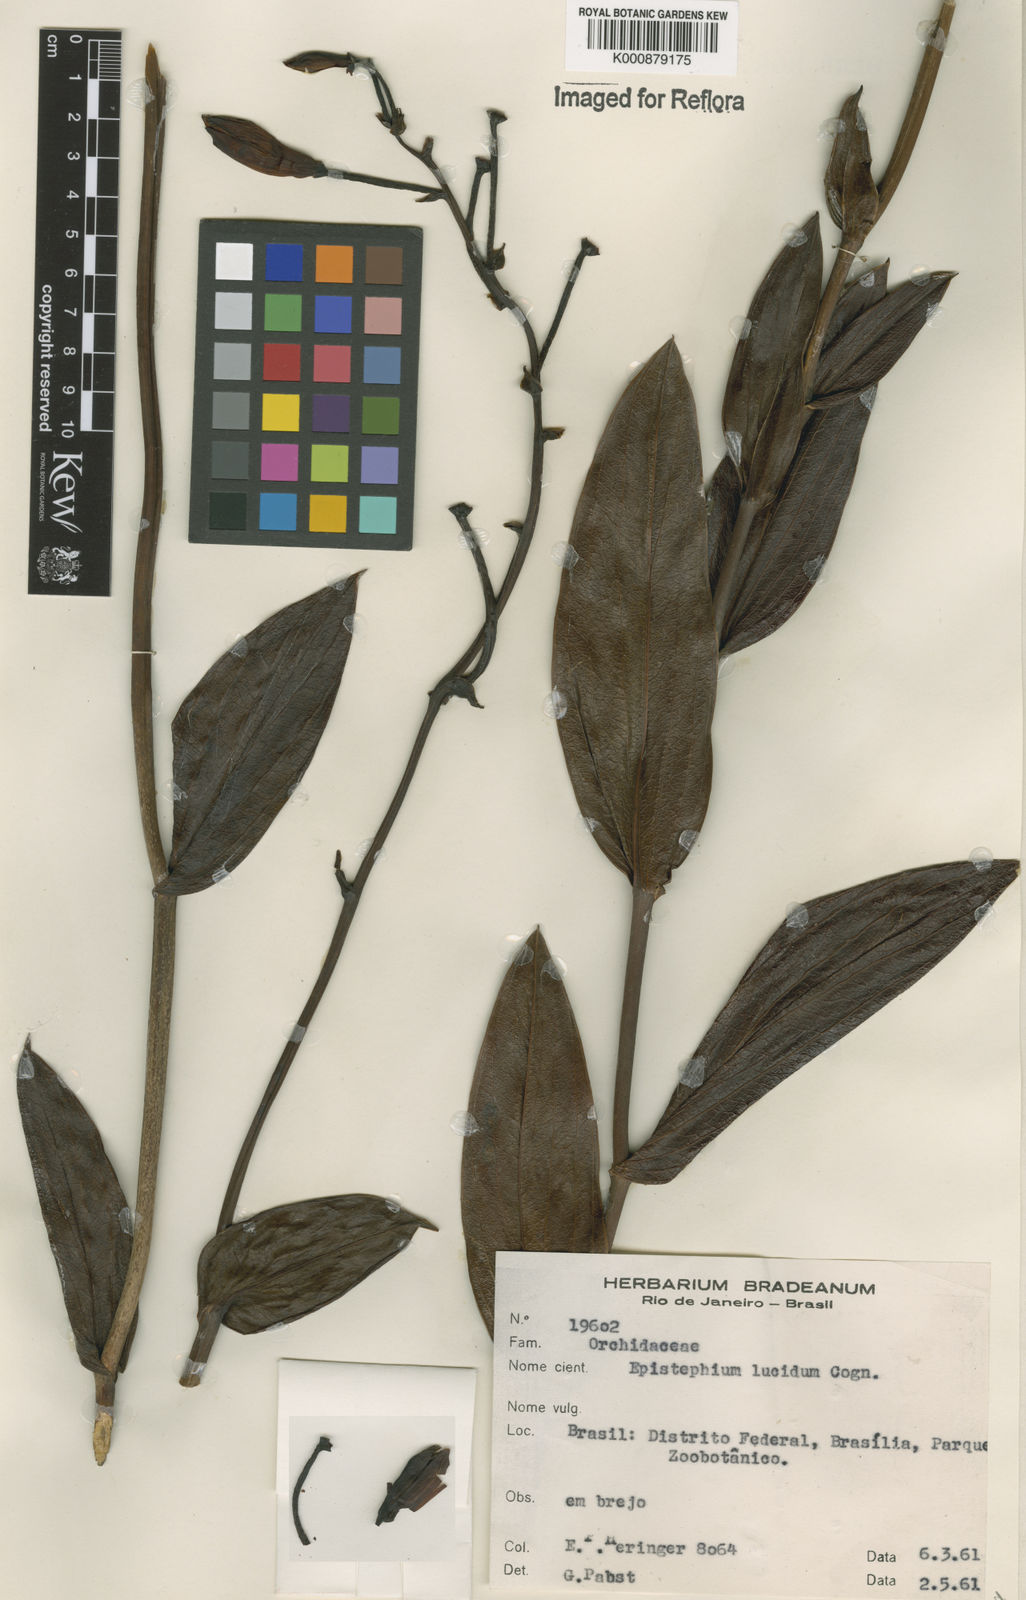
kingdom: Plantae
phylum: Tracheophyta
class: Liliopsida
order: Asparagales
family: Orchidaceae
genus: Epistephium
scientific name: Epistephium williamsii
